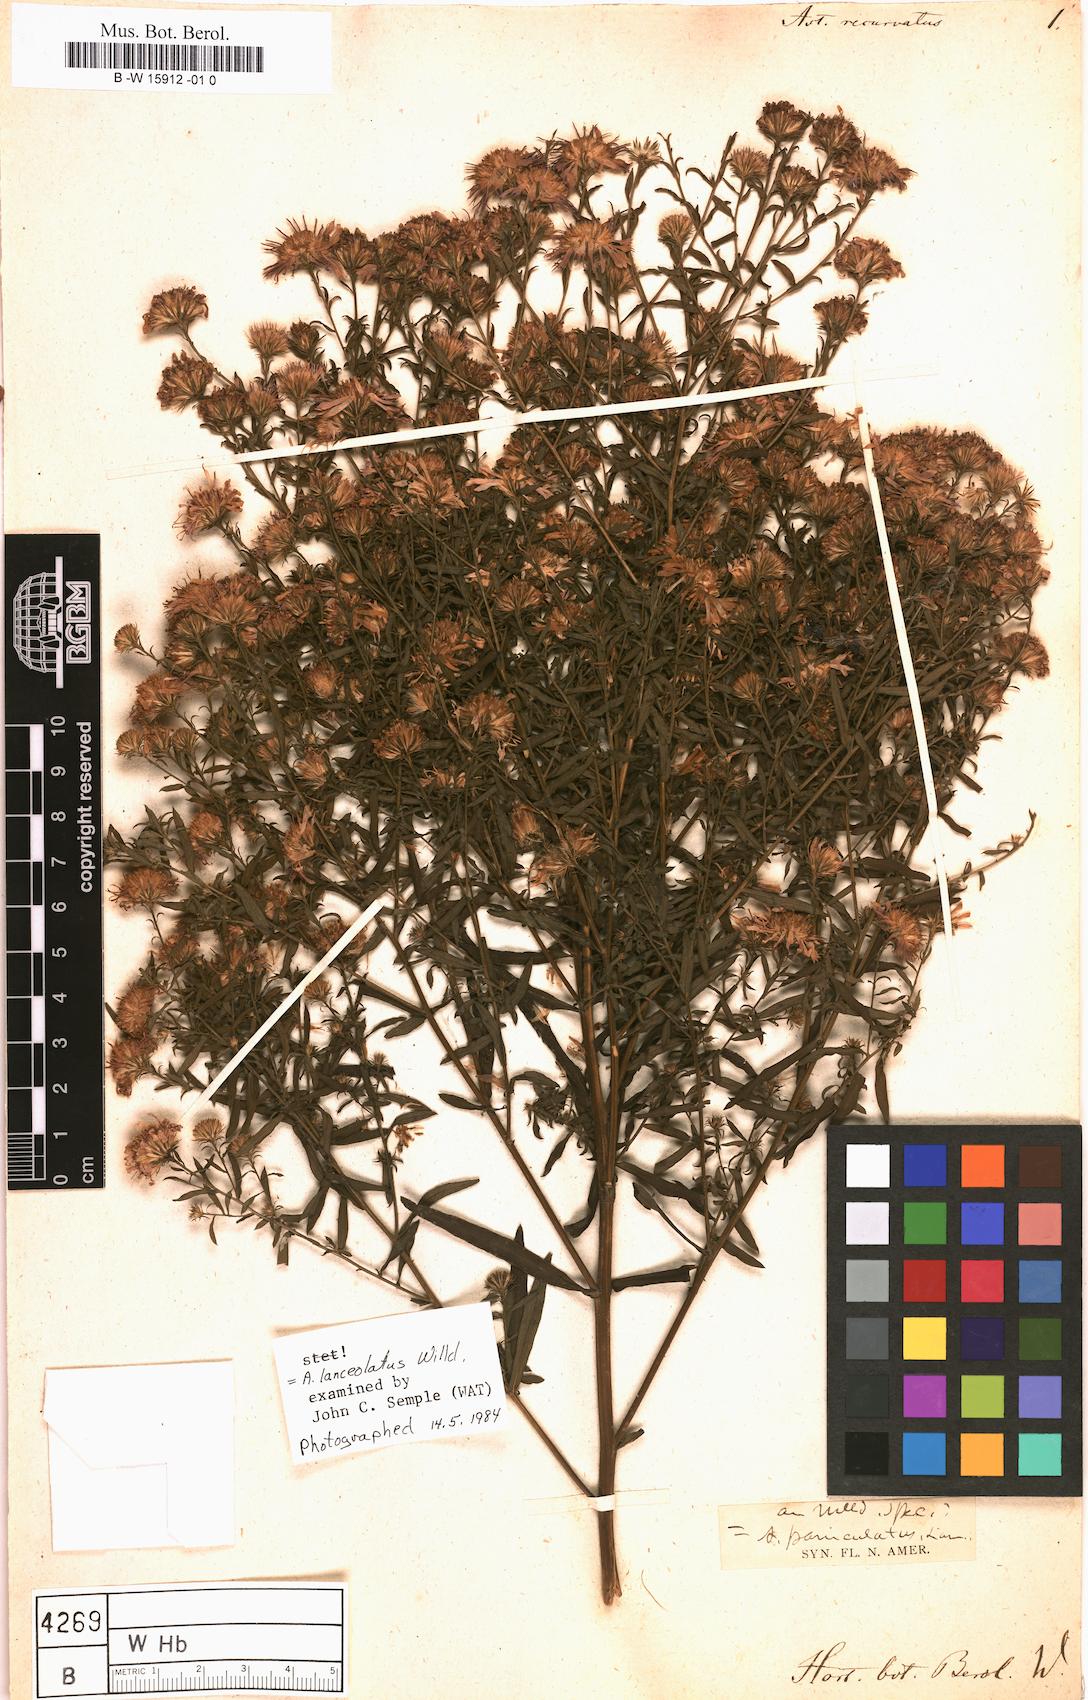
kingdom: Plantae
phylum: Tracheophyta
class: Magnoliopsida
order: Asterales
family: Asteraceae
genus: Symphyotrichum
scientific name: Symphyotrichum novi-belgii
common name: Michaelmas daisy
